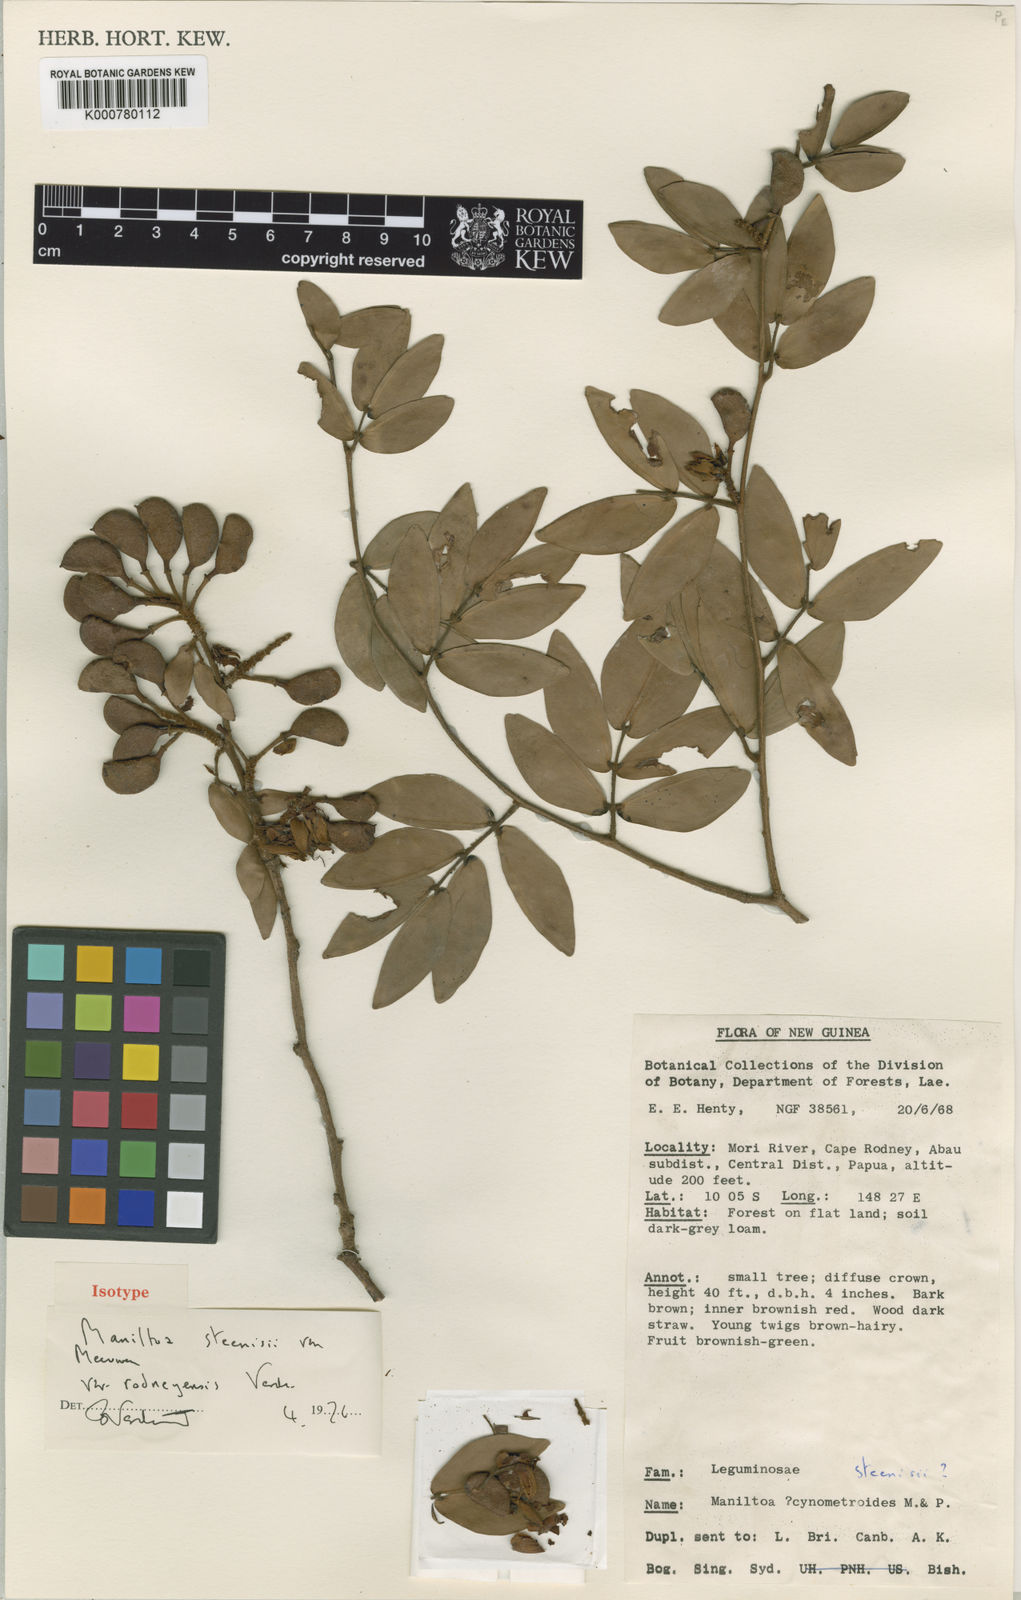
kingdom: Plantae
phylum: Tracheophyta
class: Magnoliopsida
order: Fabales
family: Fabaceae
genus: Cynometra
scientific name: Cynometra steenisii
